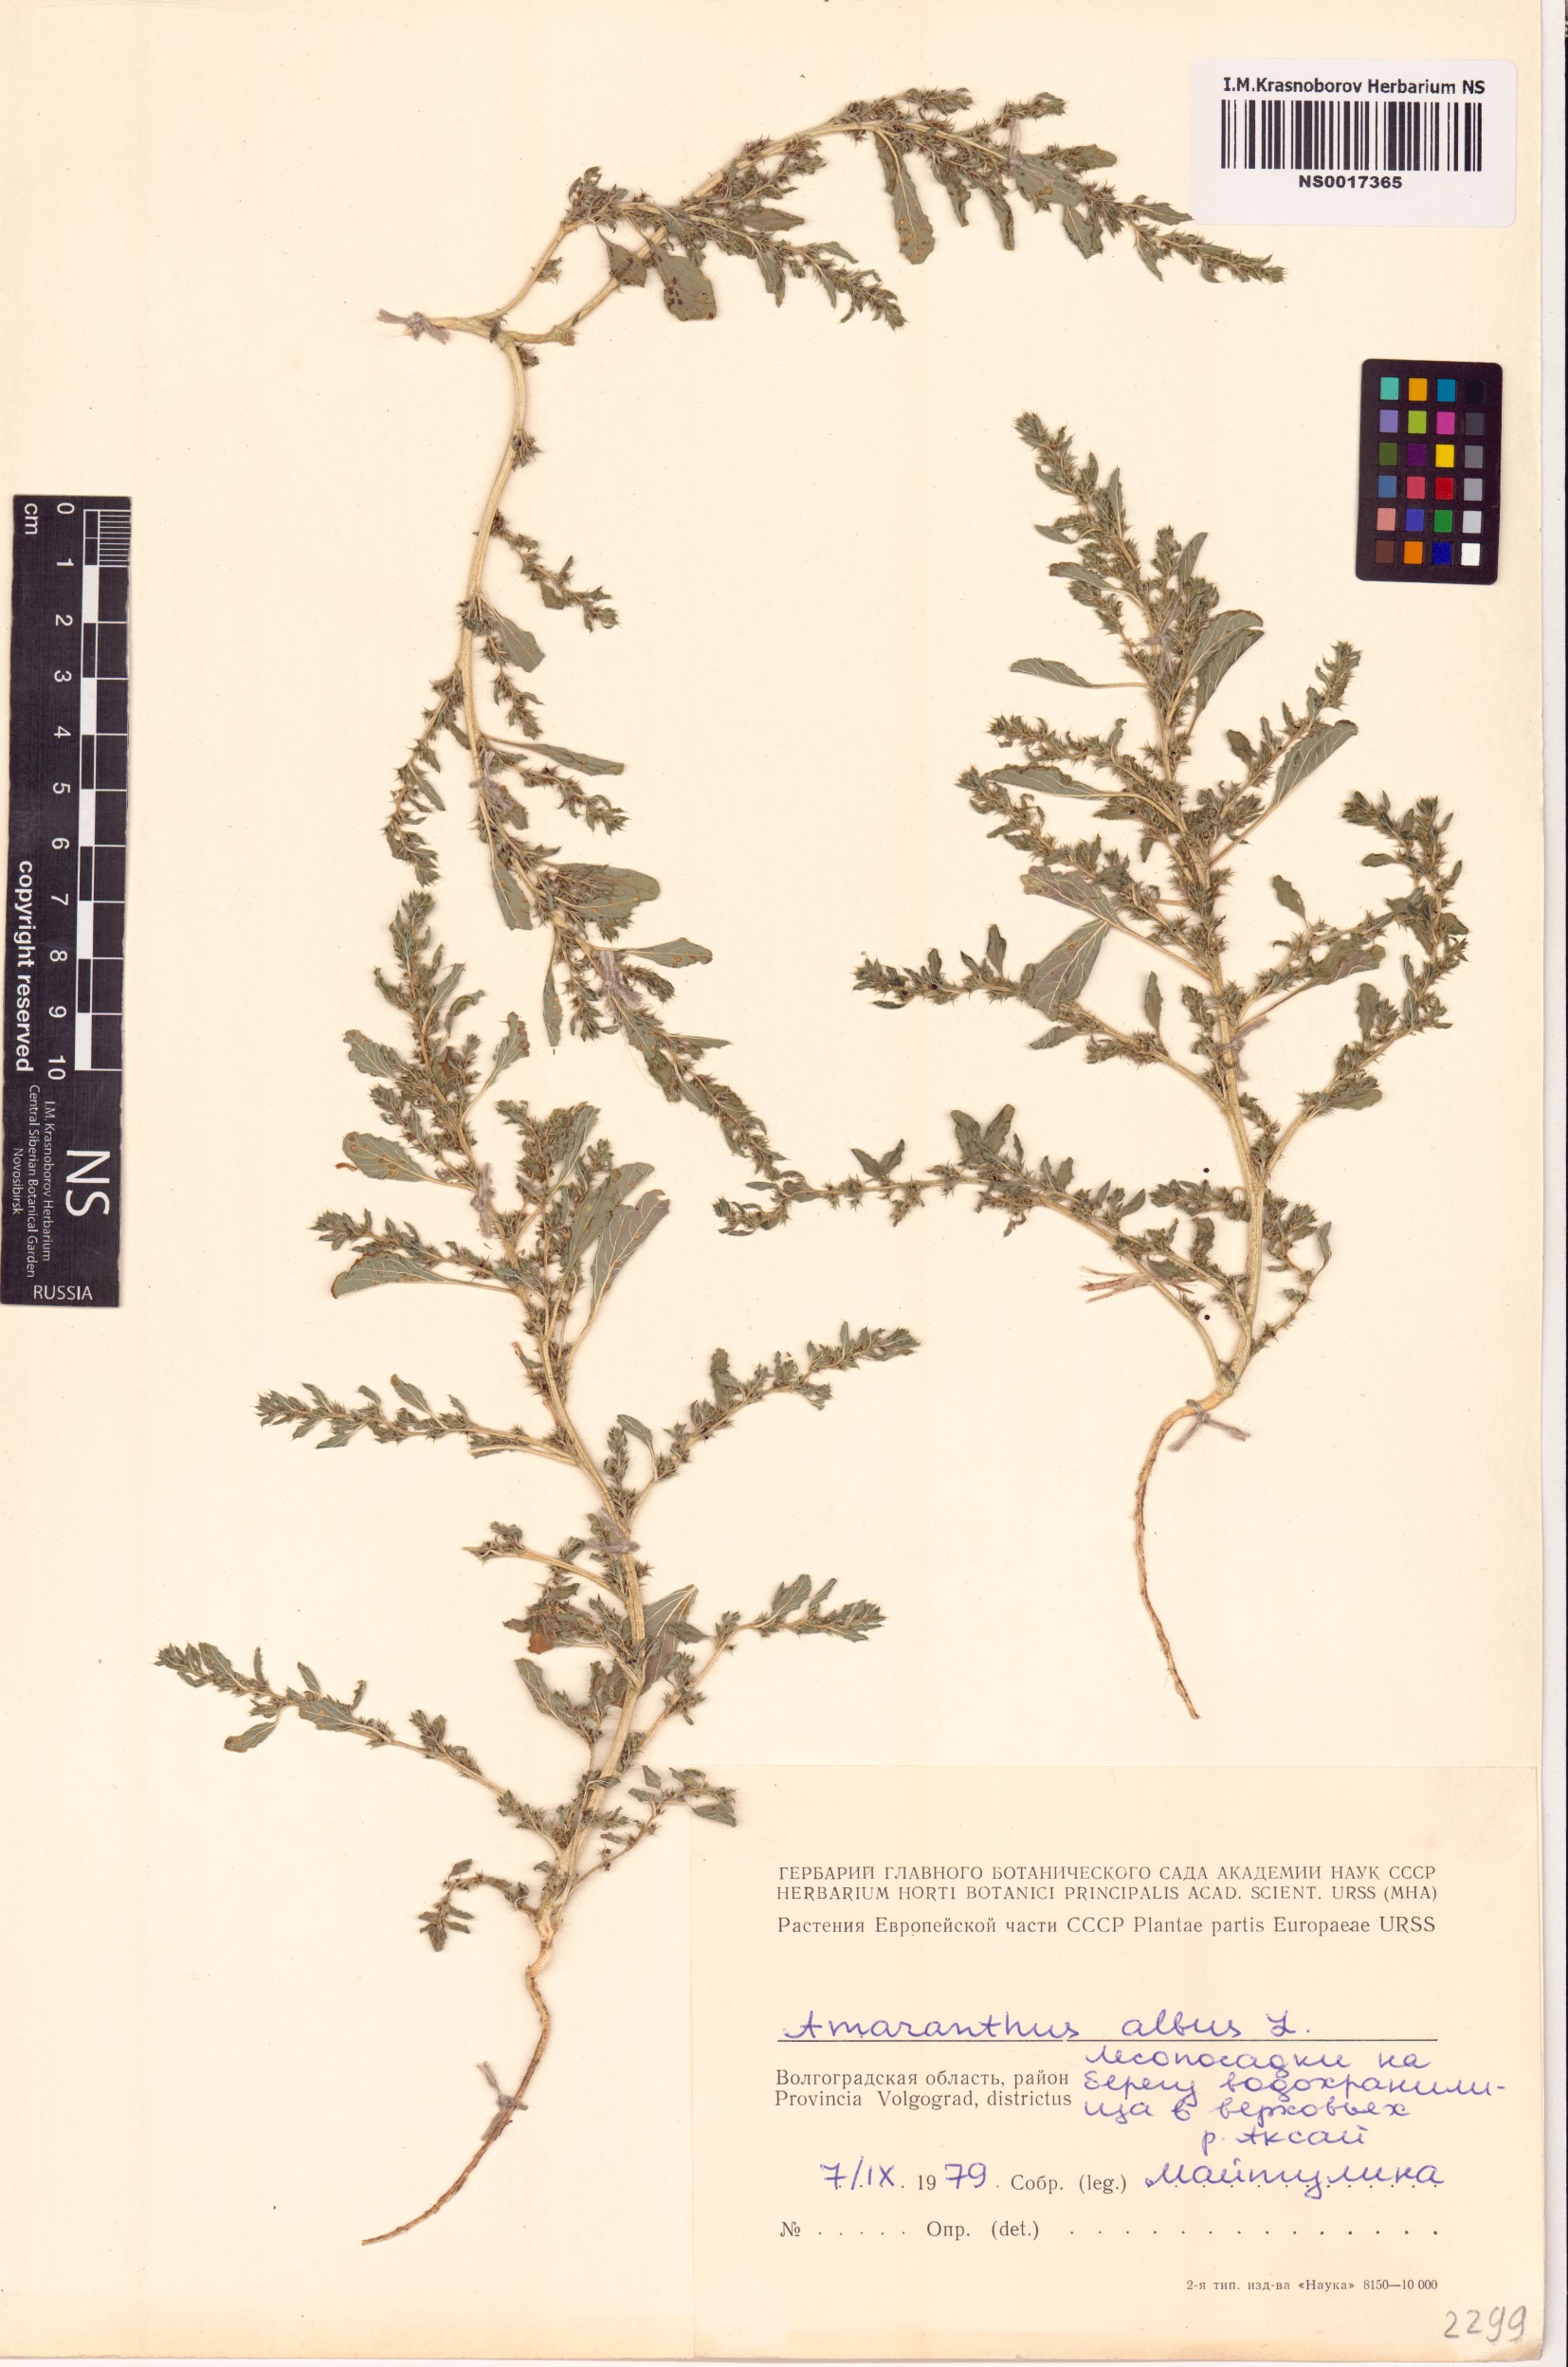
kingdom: Plantae
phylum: Tracheophyta
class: Magnoliopsida
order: Caryophyllales
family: Amaranthaceae
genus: Amaranthus
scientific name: Amaranthus albus
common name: White pigweed
